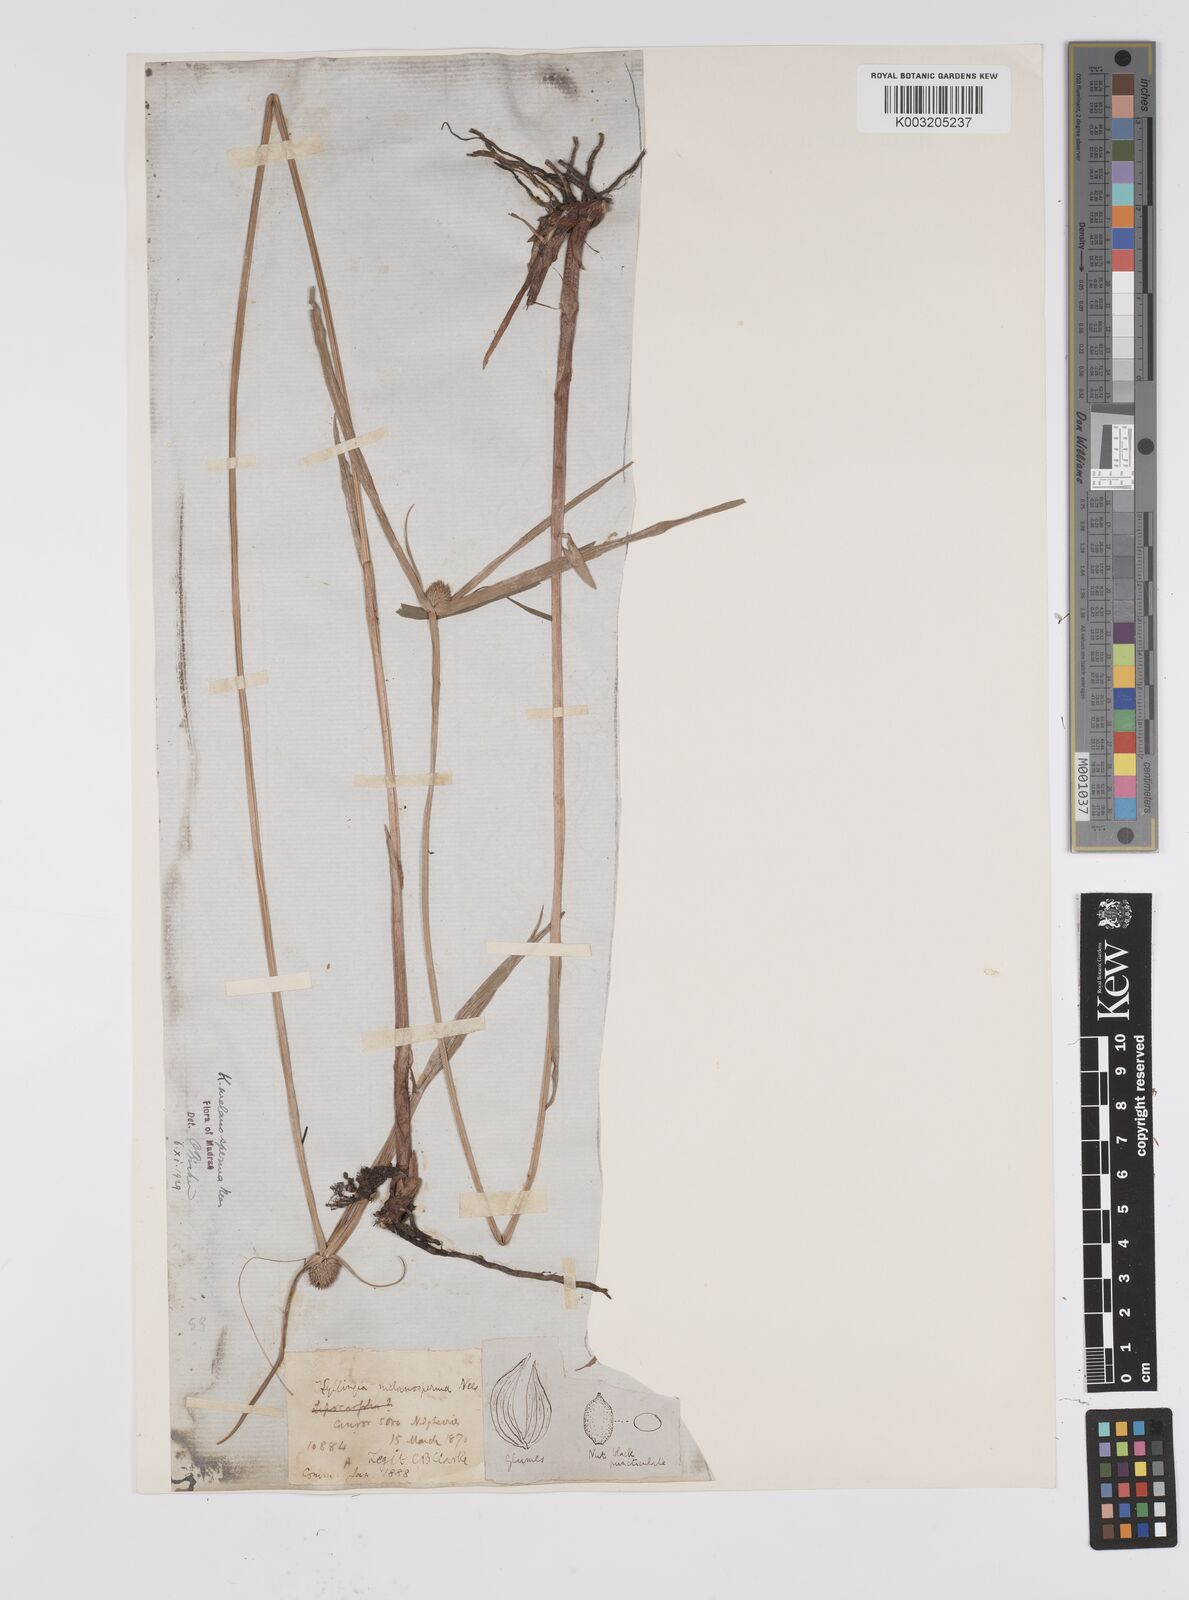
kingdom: Plantae
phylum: Tracheophyta
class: Liliopsida
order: Poales
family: Cyperaceae
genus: Cyperus
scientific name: Cyperus melanospermus
